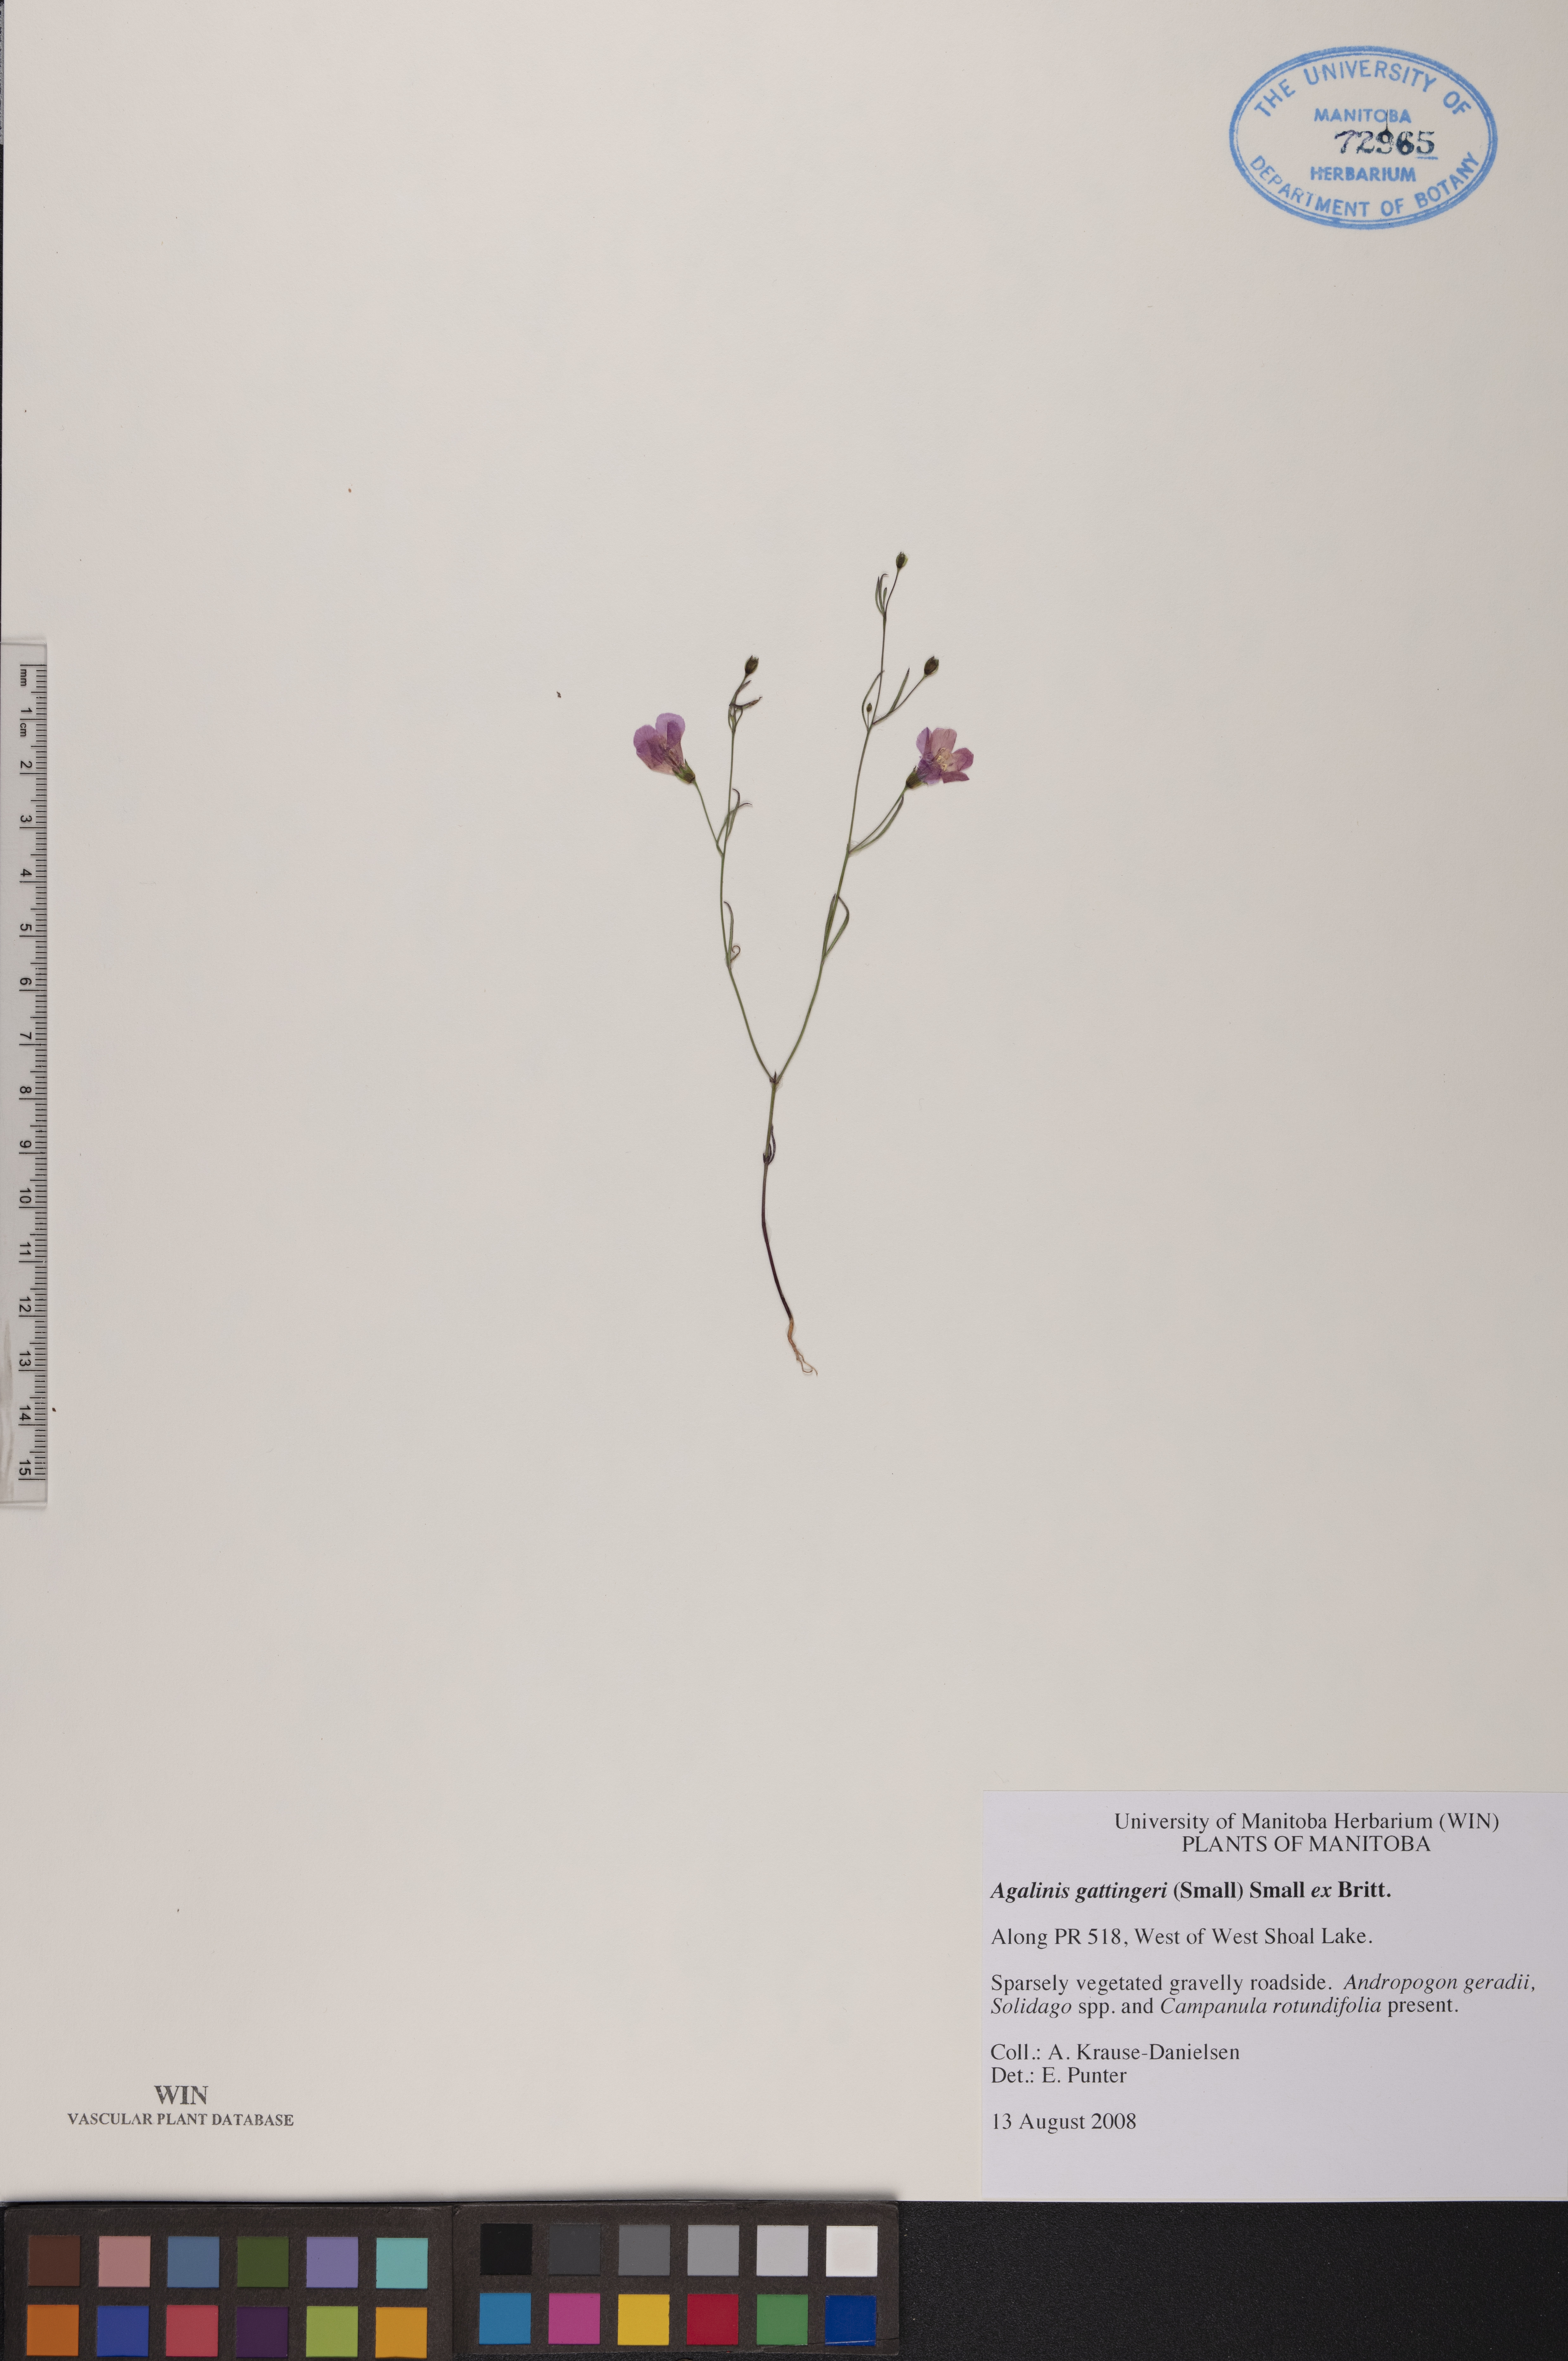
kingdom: Plantae
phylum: Tracheophyta
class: Magnoliopsida
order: Lamiales
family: Orobanchaceae
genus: Agalinis
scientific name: Agalinis gattingeri
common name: Gattinger's agalinis
